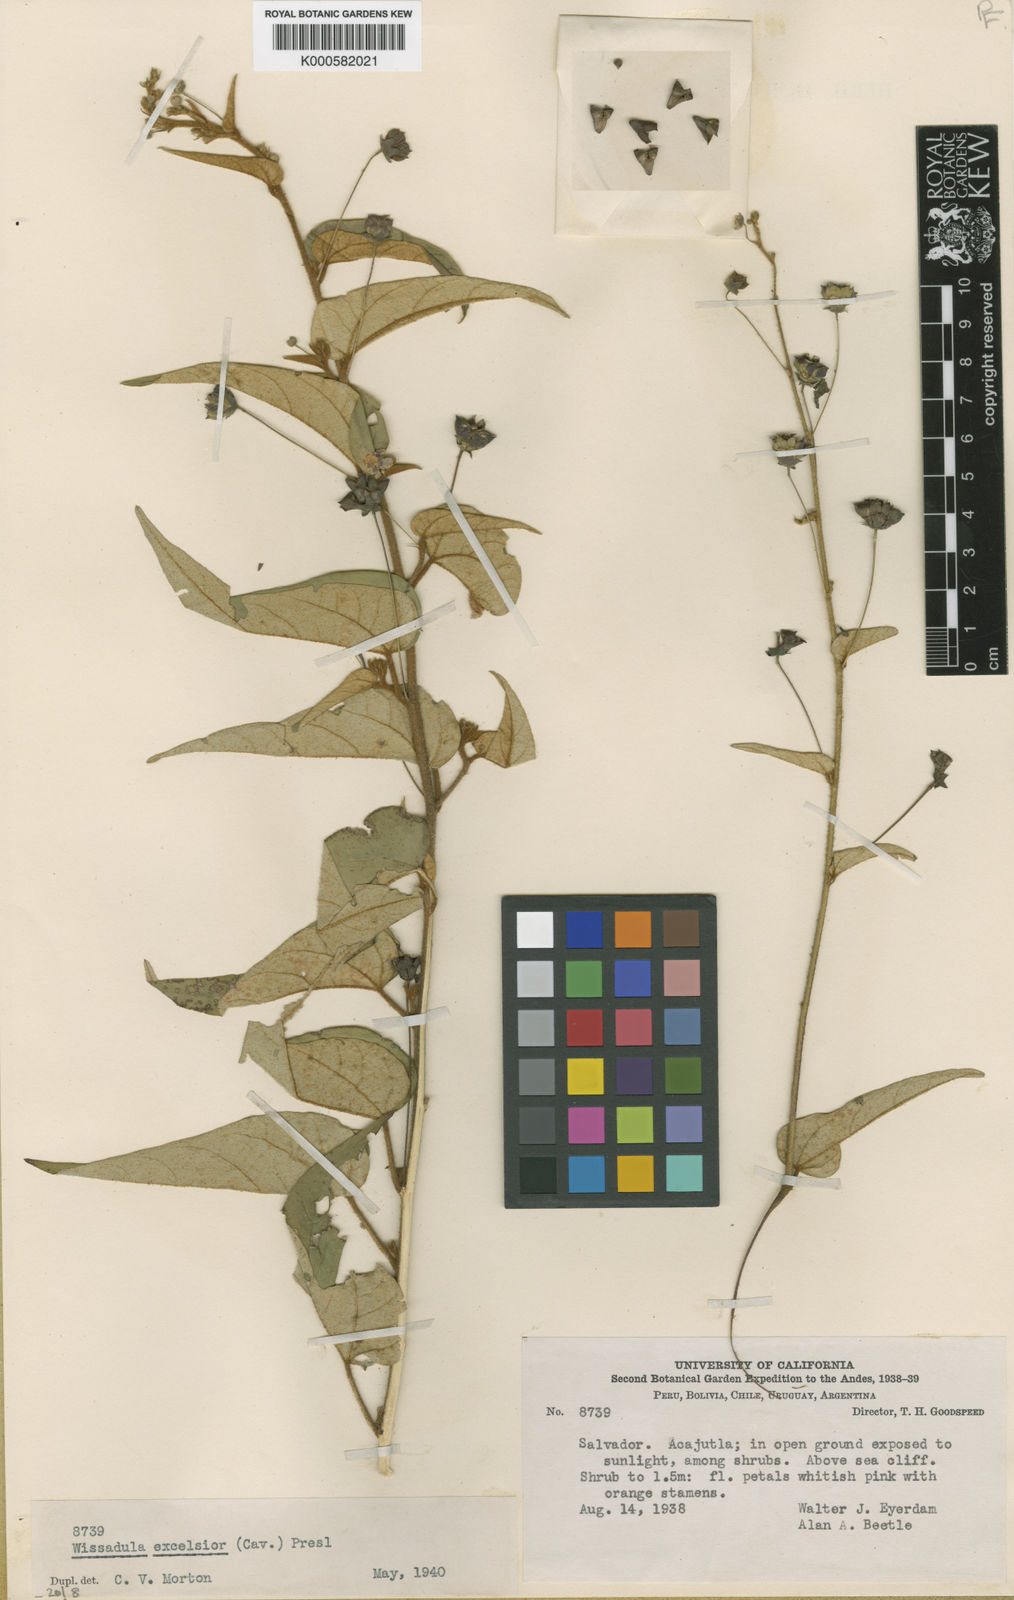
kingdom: Plantae
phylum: Tracheophyta
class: Magnoliopsida
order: Malvales
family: Malvaceae
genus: Wissadula
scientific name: Wissadula excelsior
